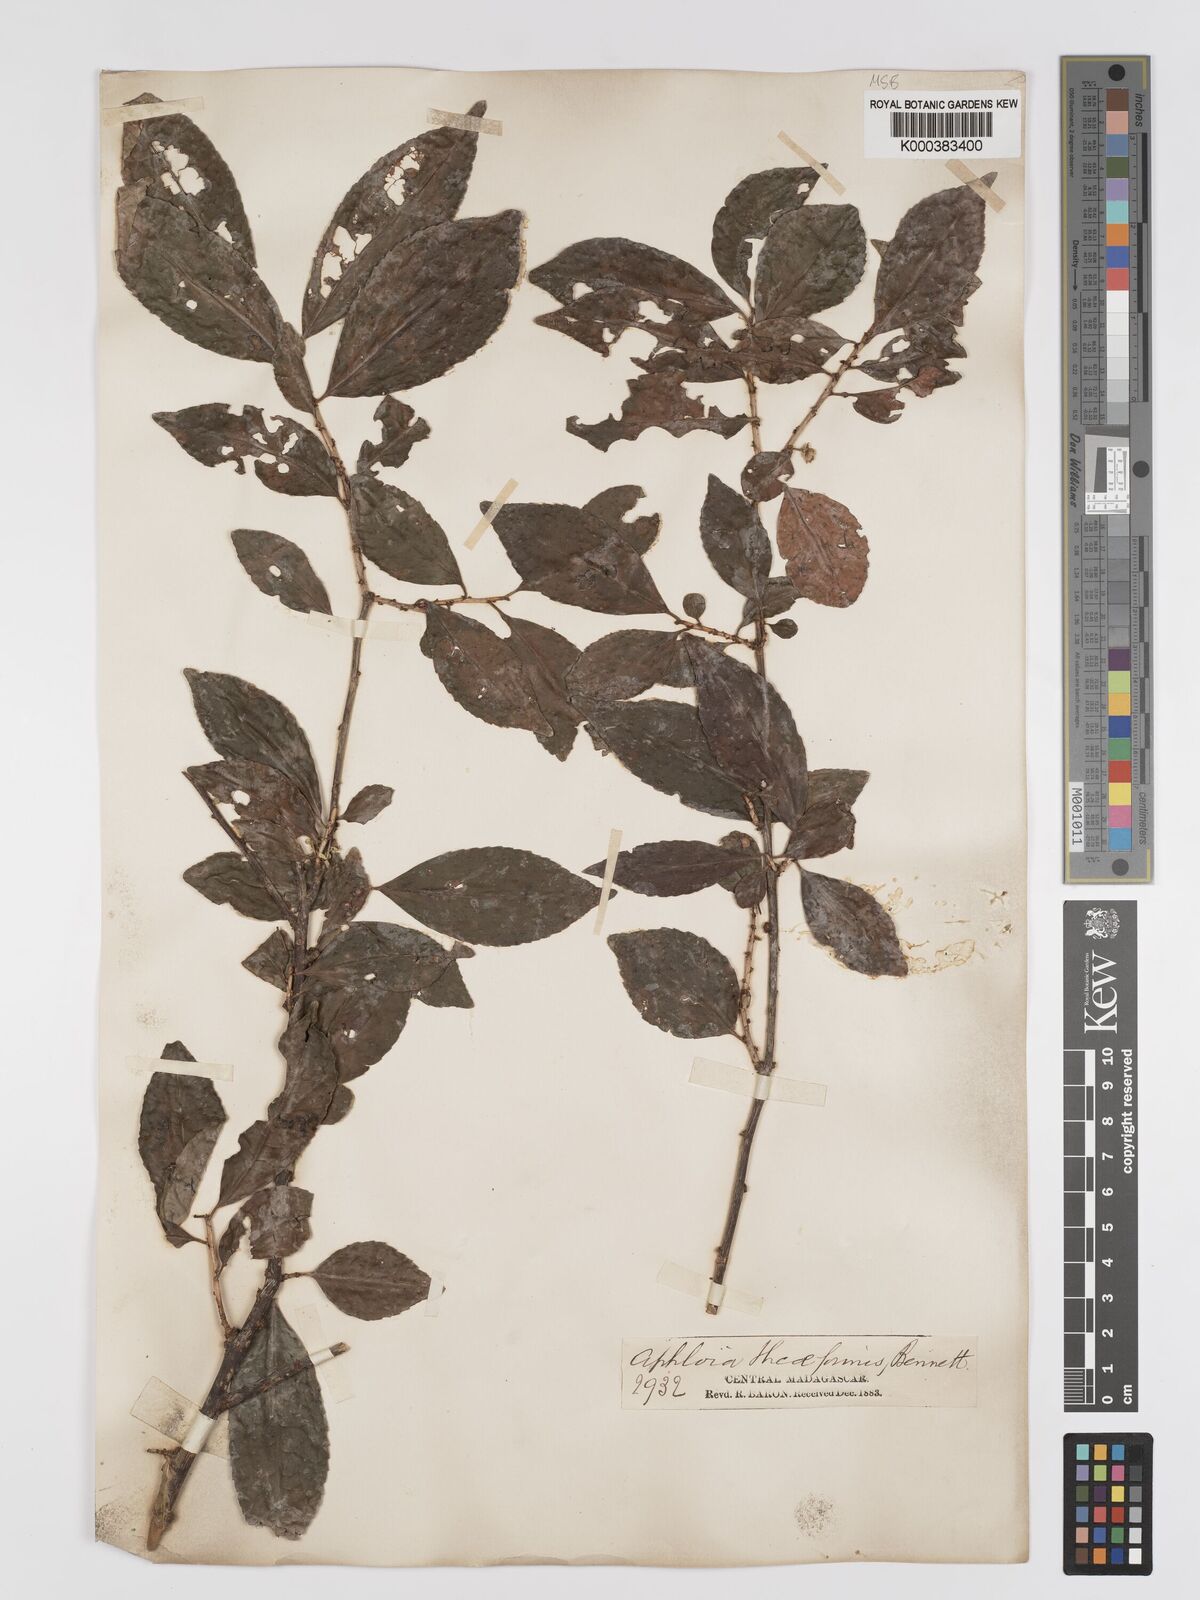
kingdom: Plantae
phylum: Tracheophyta
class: Magnoliopsida
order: Crossosomatales
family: Aphloiaceae
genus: Aphloia
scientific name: Aphloia theiformis
